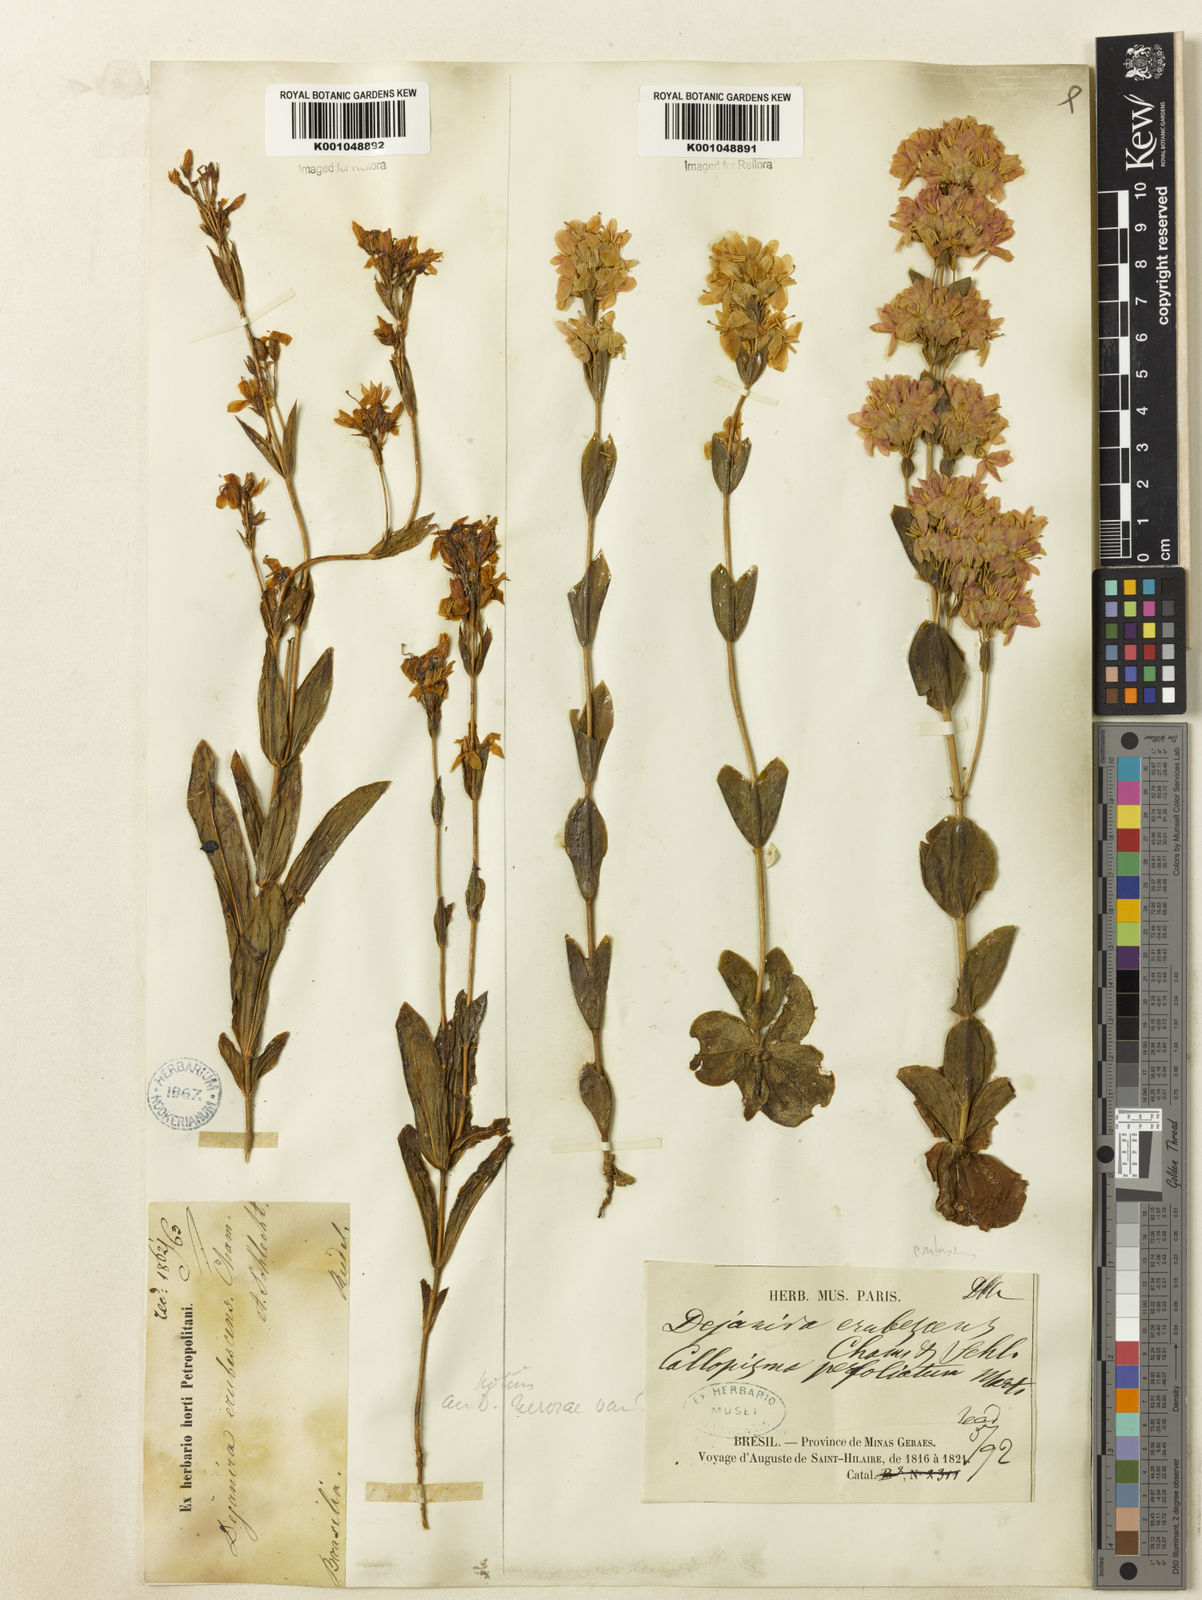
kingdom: Plantae
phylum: Tracheophyta
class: Magnoliopsida
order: Gentianales
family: Gentianaceae
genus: Deianira
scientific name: Deianira erubescens
